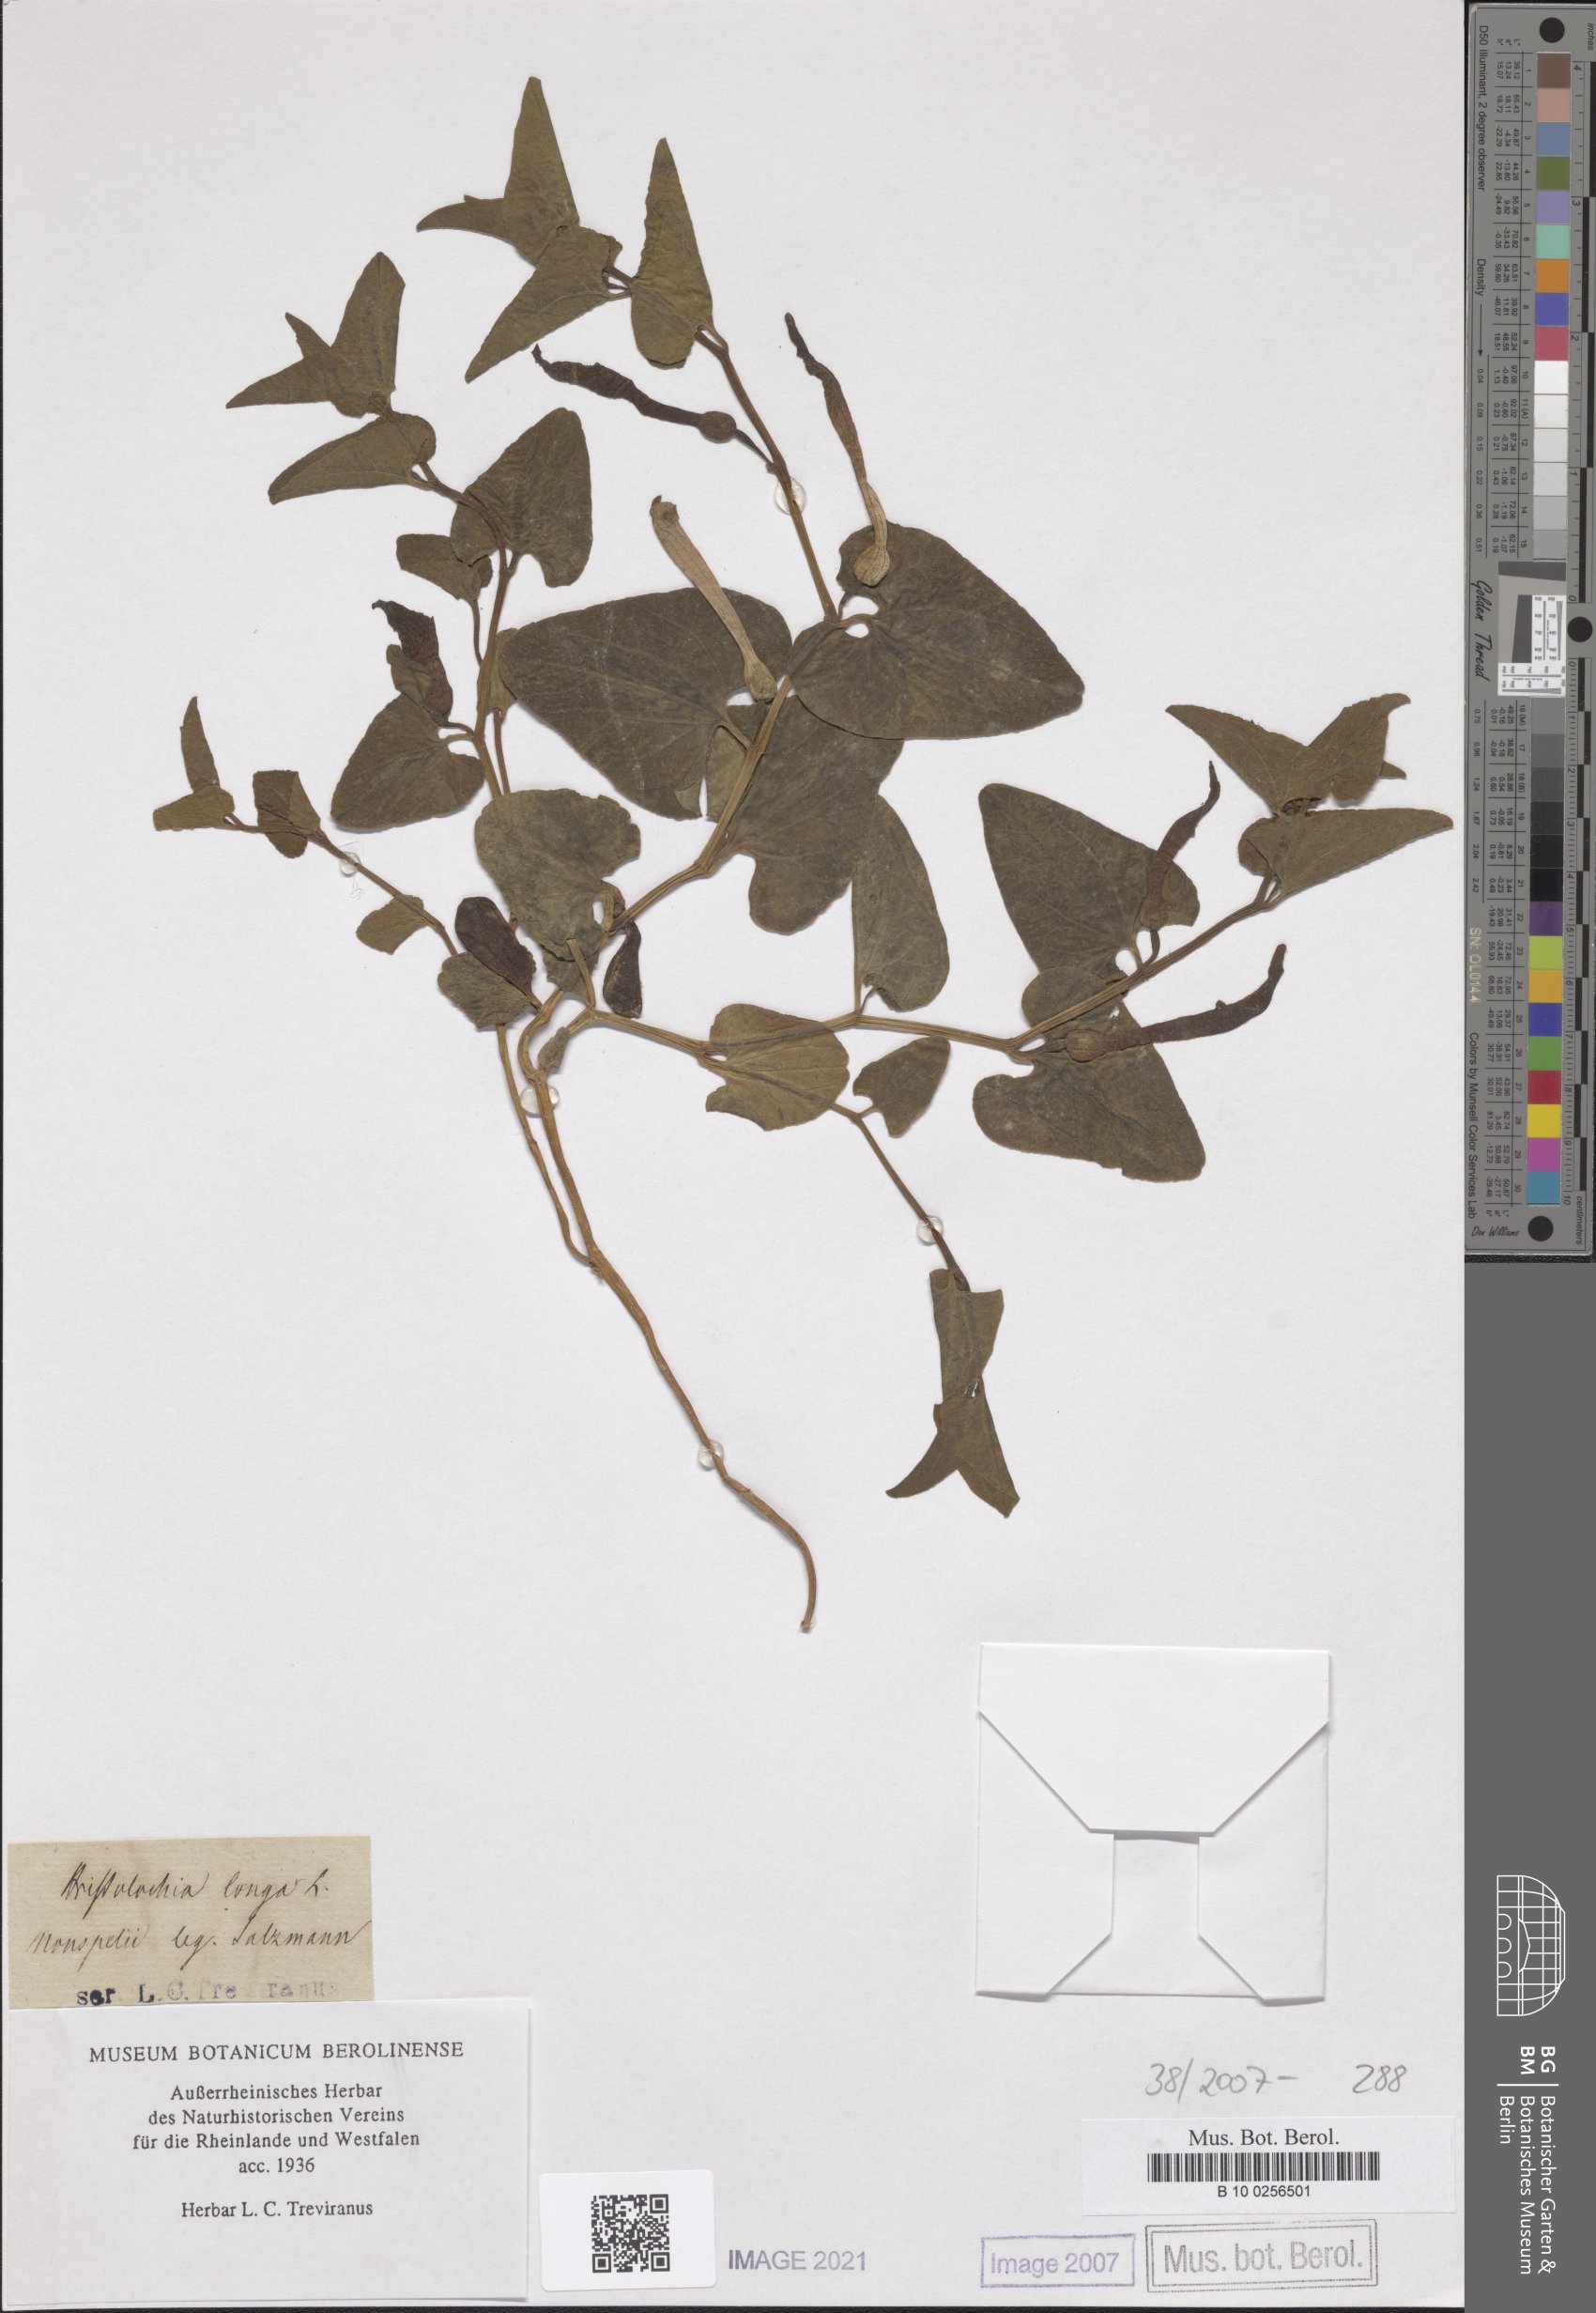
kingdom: Plantae
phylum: Tracheophyta
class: Magnoliopsida
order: Piperales
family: Aristolochiaceae
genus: Aristolochia
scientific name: Aristolochia fontanesii
